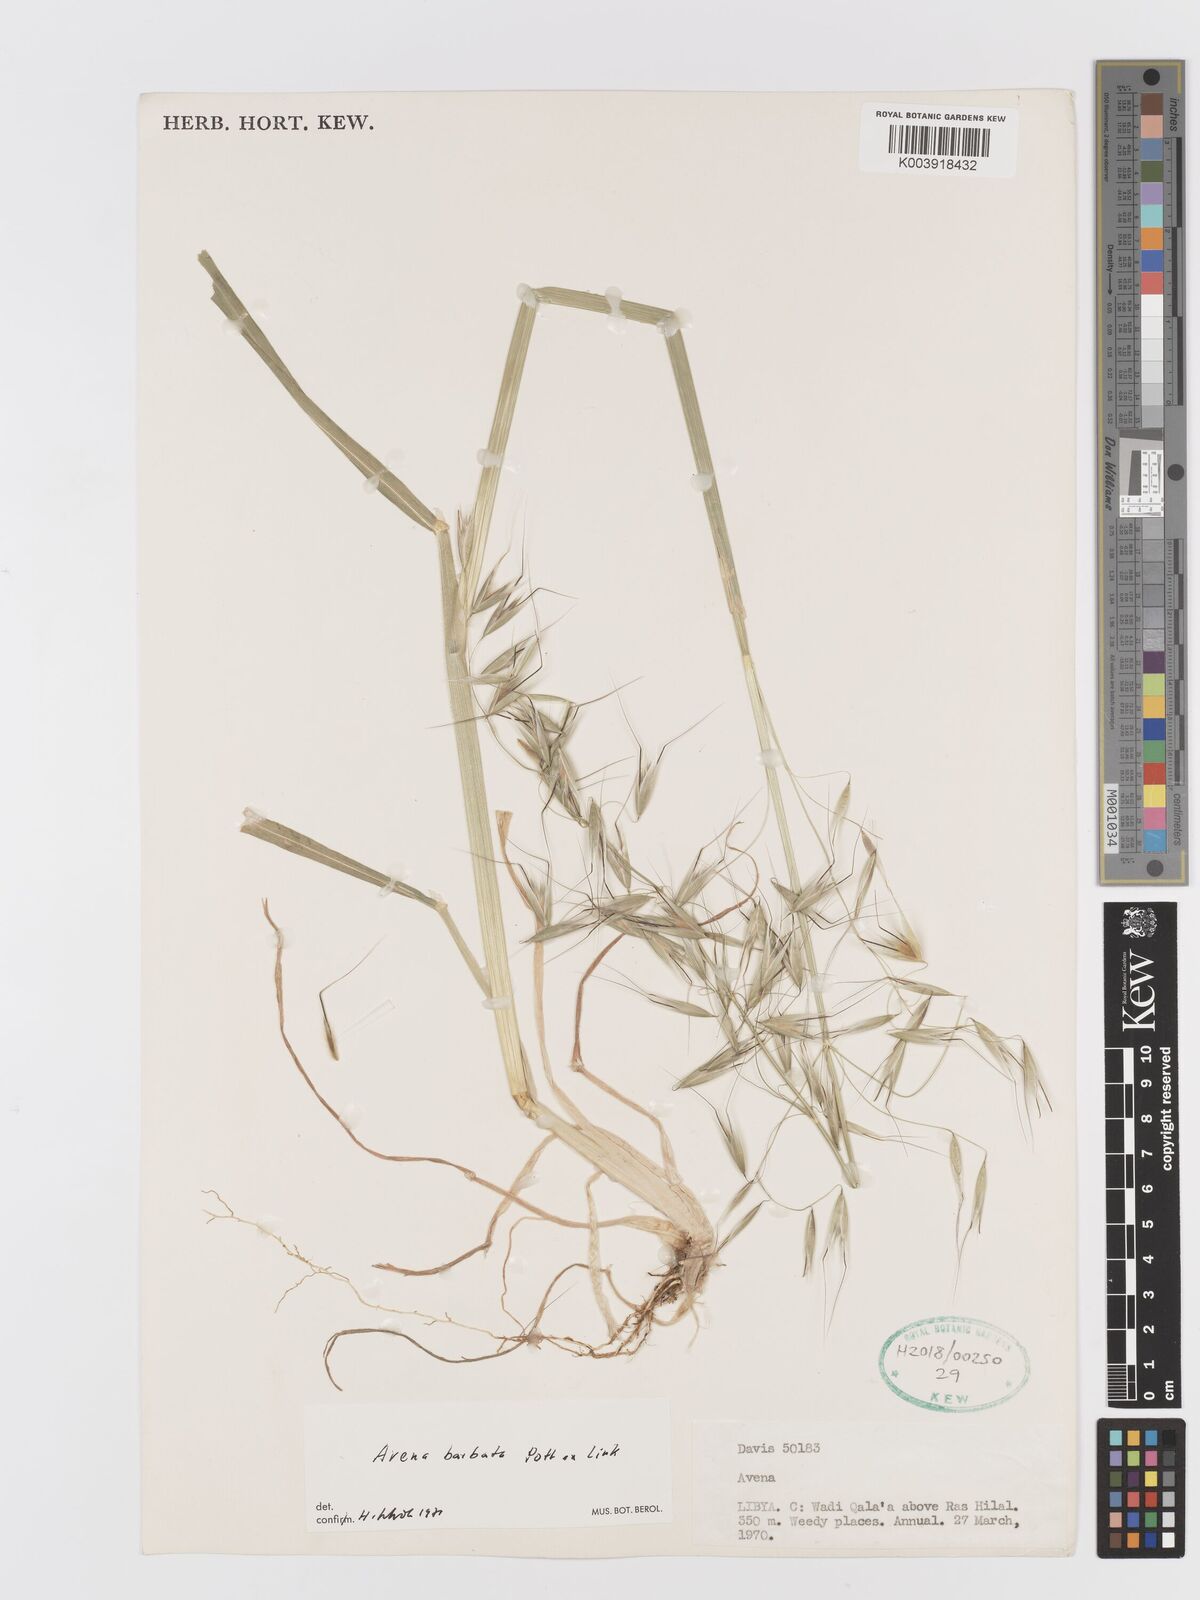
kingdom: Plantae
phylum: Tracheophyta
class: Liliopsida
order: Poales
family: Poaceae
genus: Avena
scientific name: Avena
